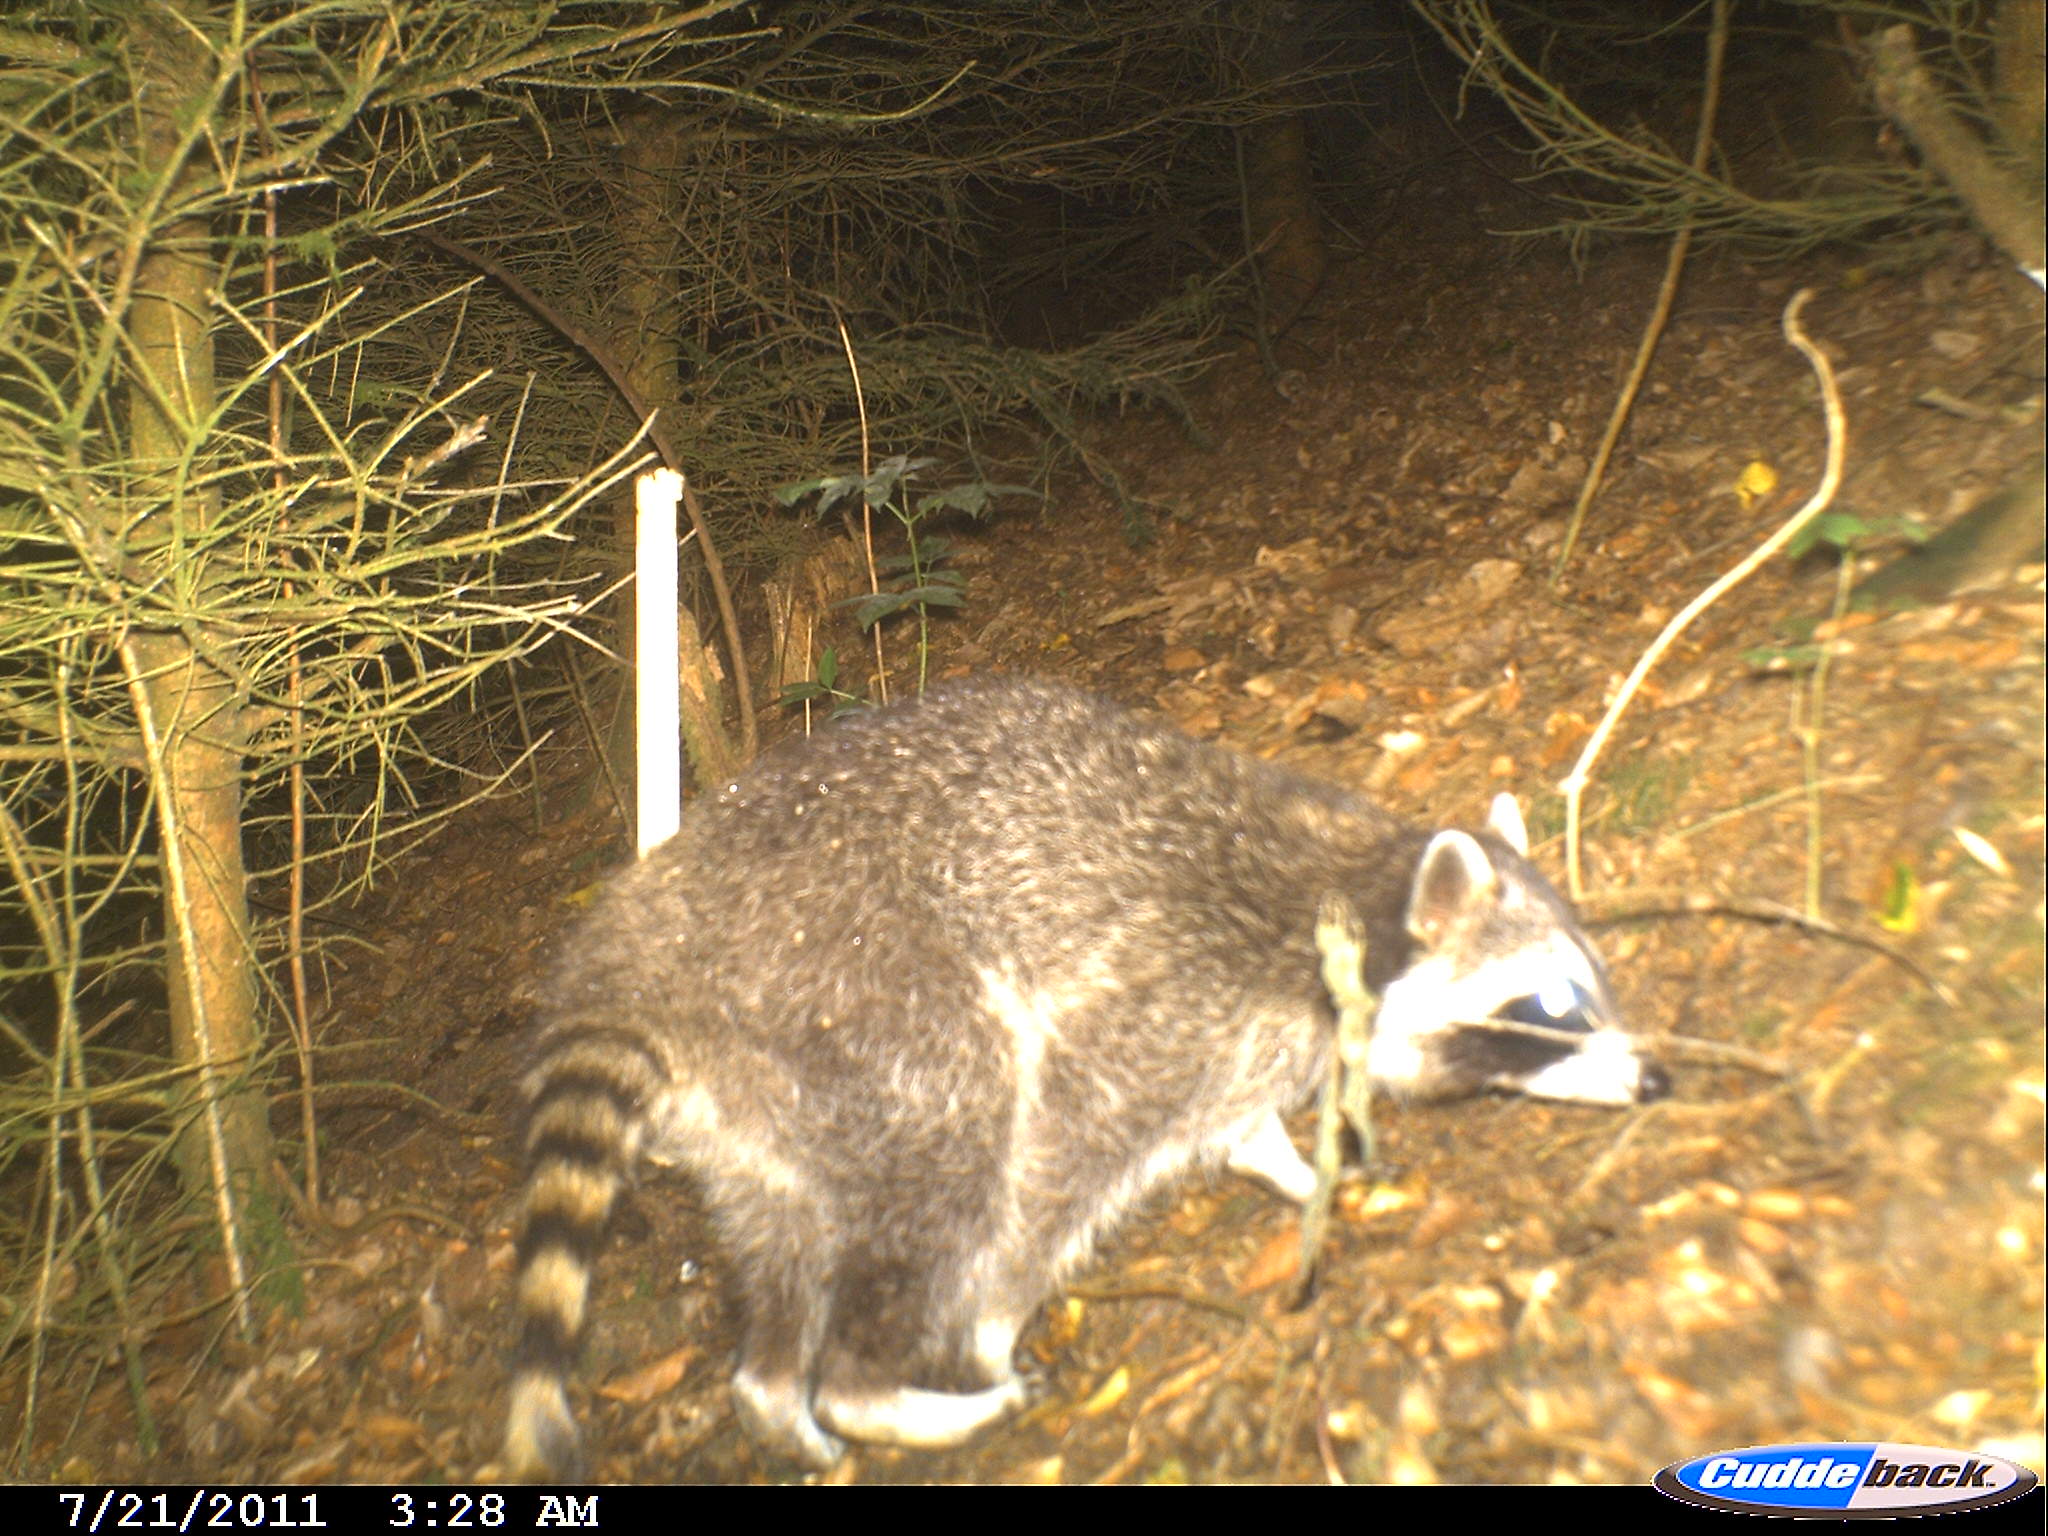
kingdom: Animalia
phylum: Chordata
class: Mammalia
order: Carnivora
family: Procyonidae
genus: Procyon
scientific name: Procyon lotor
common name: Raccoon
